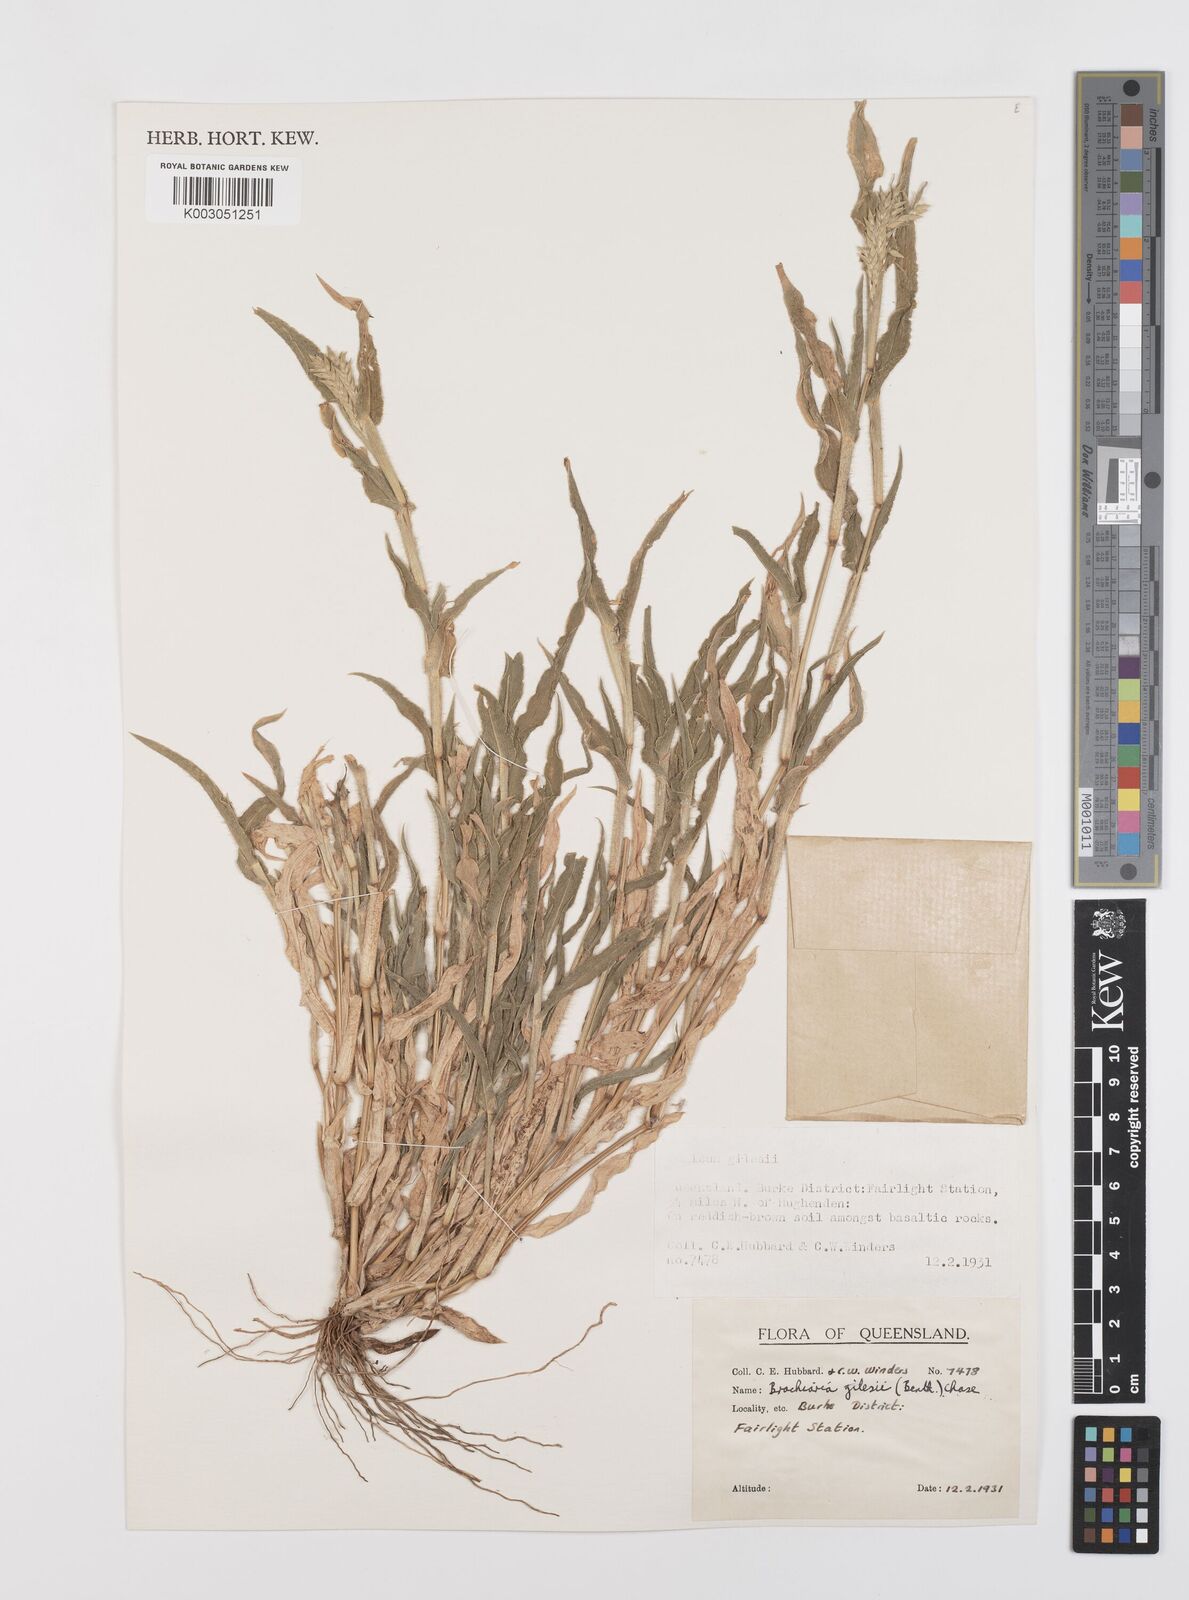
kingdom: Plantae
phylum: Tracheophyta
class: Liliopsida
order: Poales
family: Poaceae
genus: Urochloa
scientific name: Urochloa gilesii
